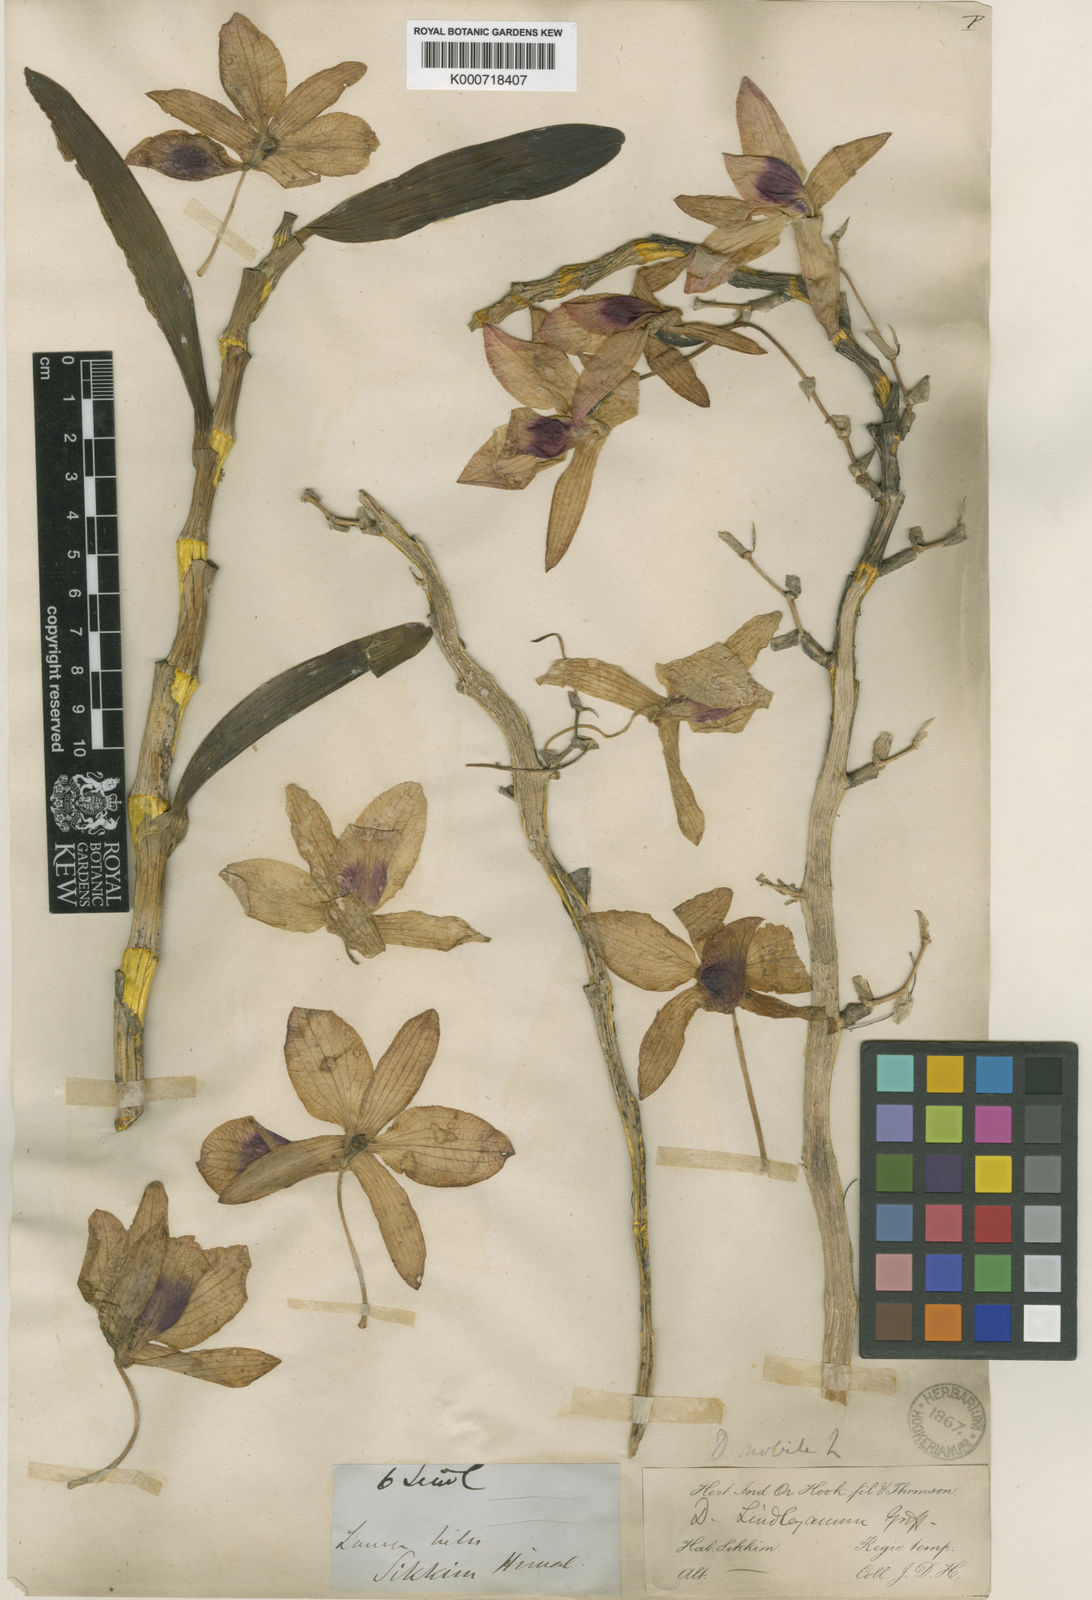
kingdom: Plantae
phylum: Tracheophyta
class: Liliopsida
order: Asparagales
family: Orchidaceae
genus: Dendrobium
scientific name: Dendrobium nobile
